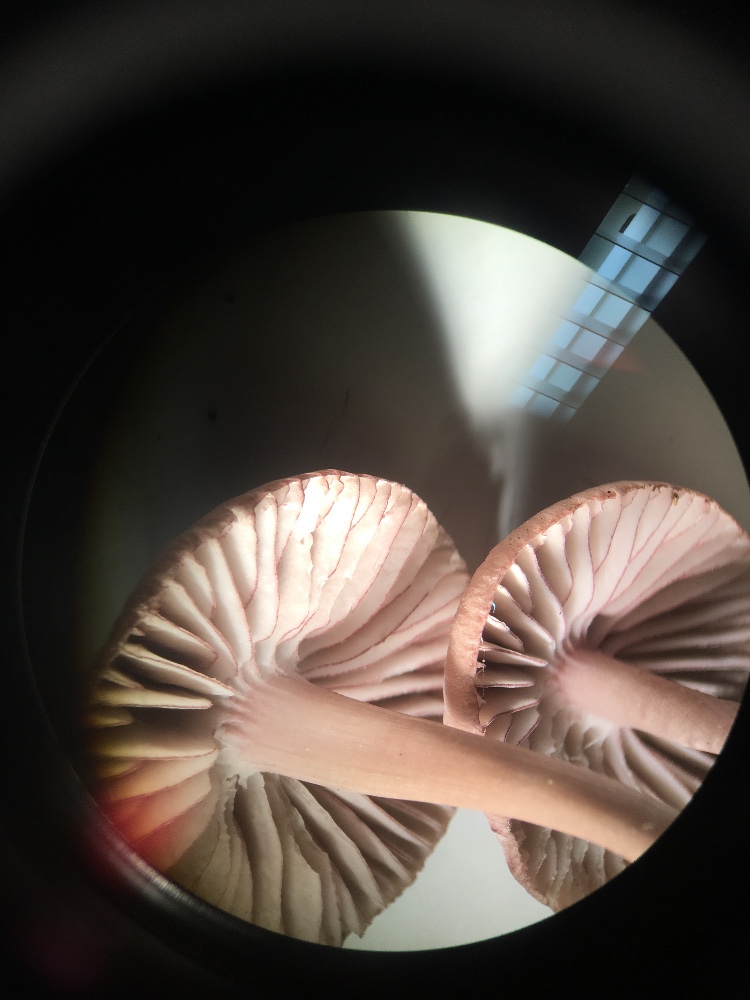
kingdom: Fungi
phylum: Basidiomycota
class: Agaricomycetes
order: Agaricales
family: Mycenaceae
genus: Mycena
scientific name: Mycena rubromarginata
